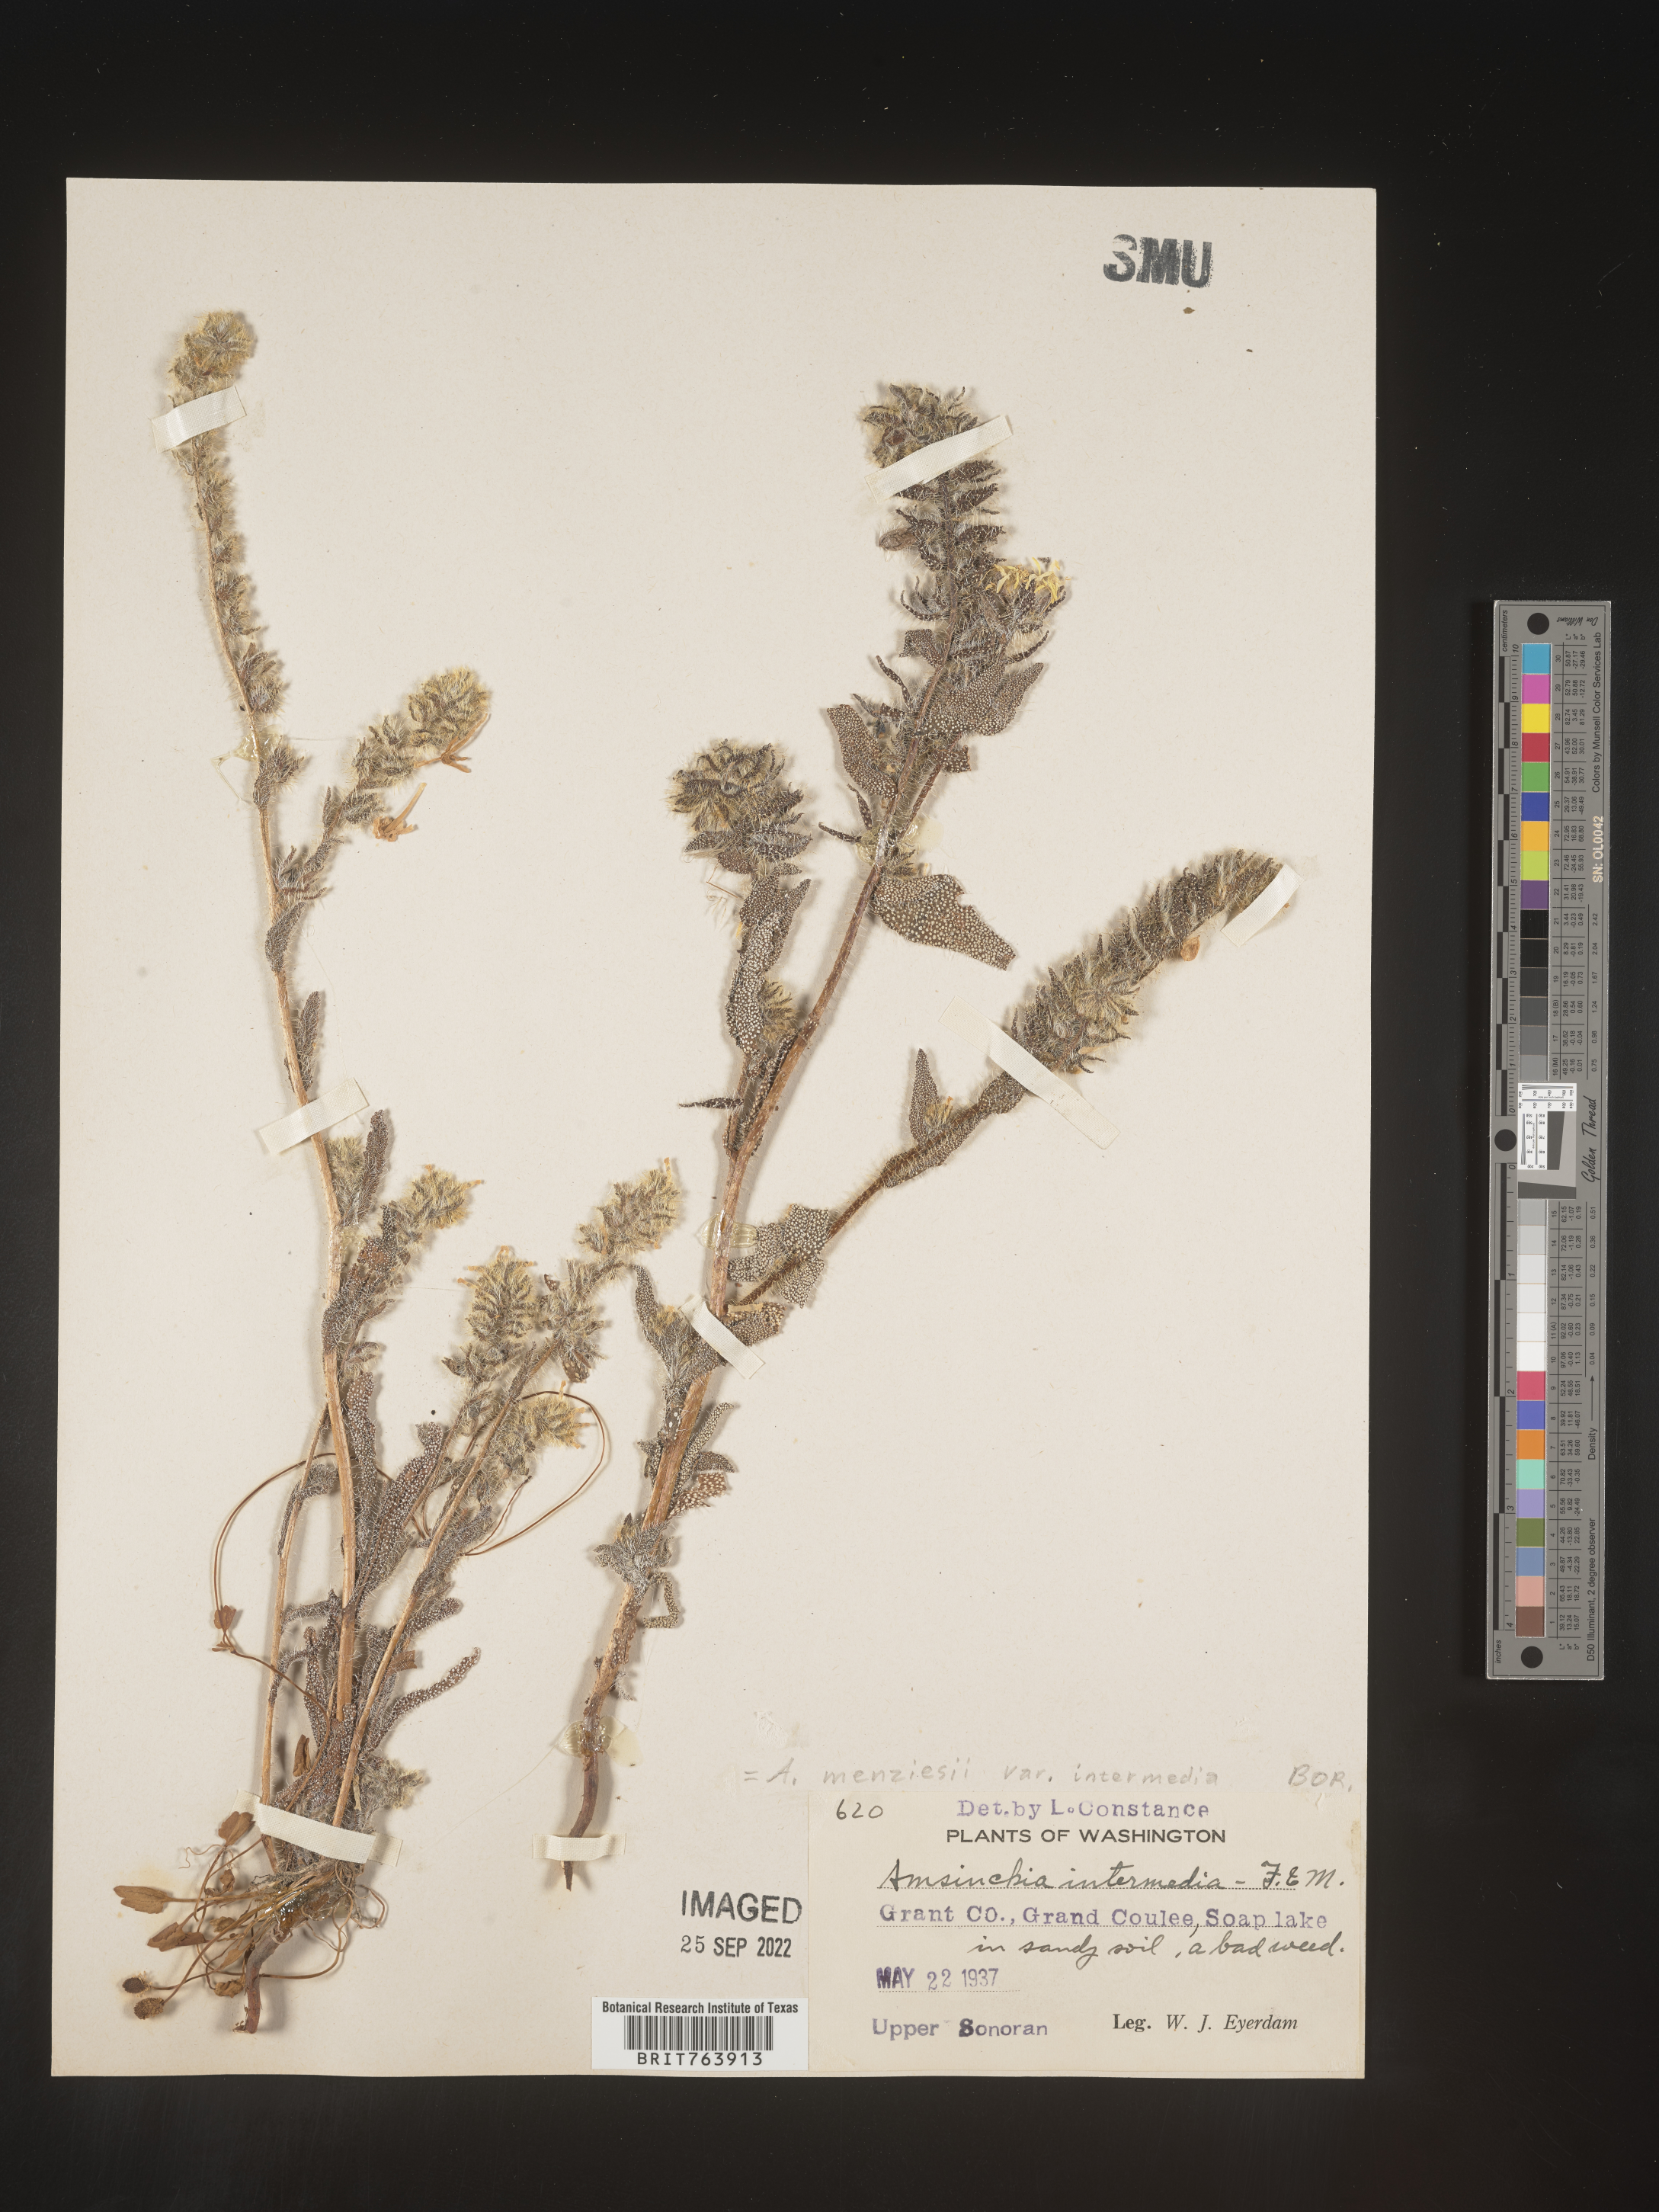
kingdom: Plantae
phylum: Tracheophyta
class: Magnoliopsida
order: Boraginales
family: Boraginaceae
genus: Amsinckia
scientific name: Amsinckia menziesii
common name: Menzies' fiddleneck
